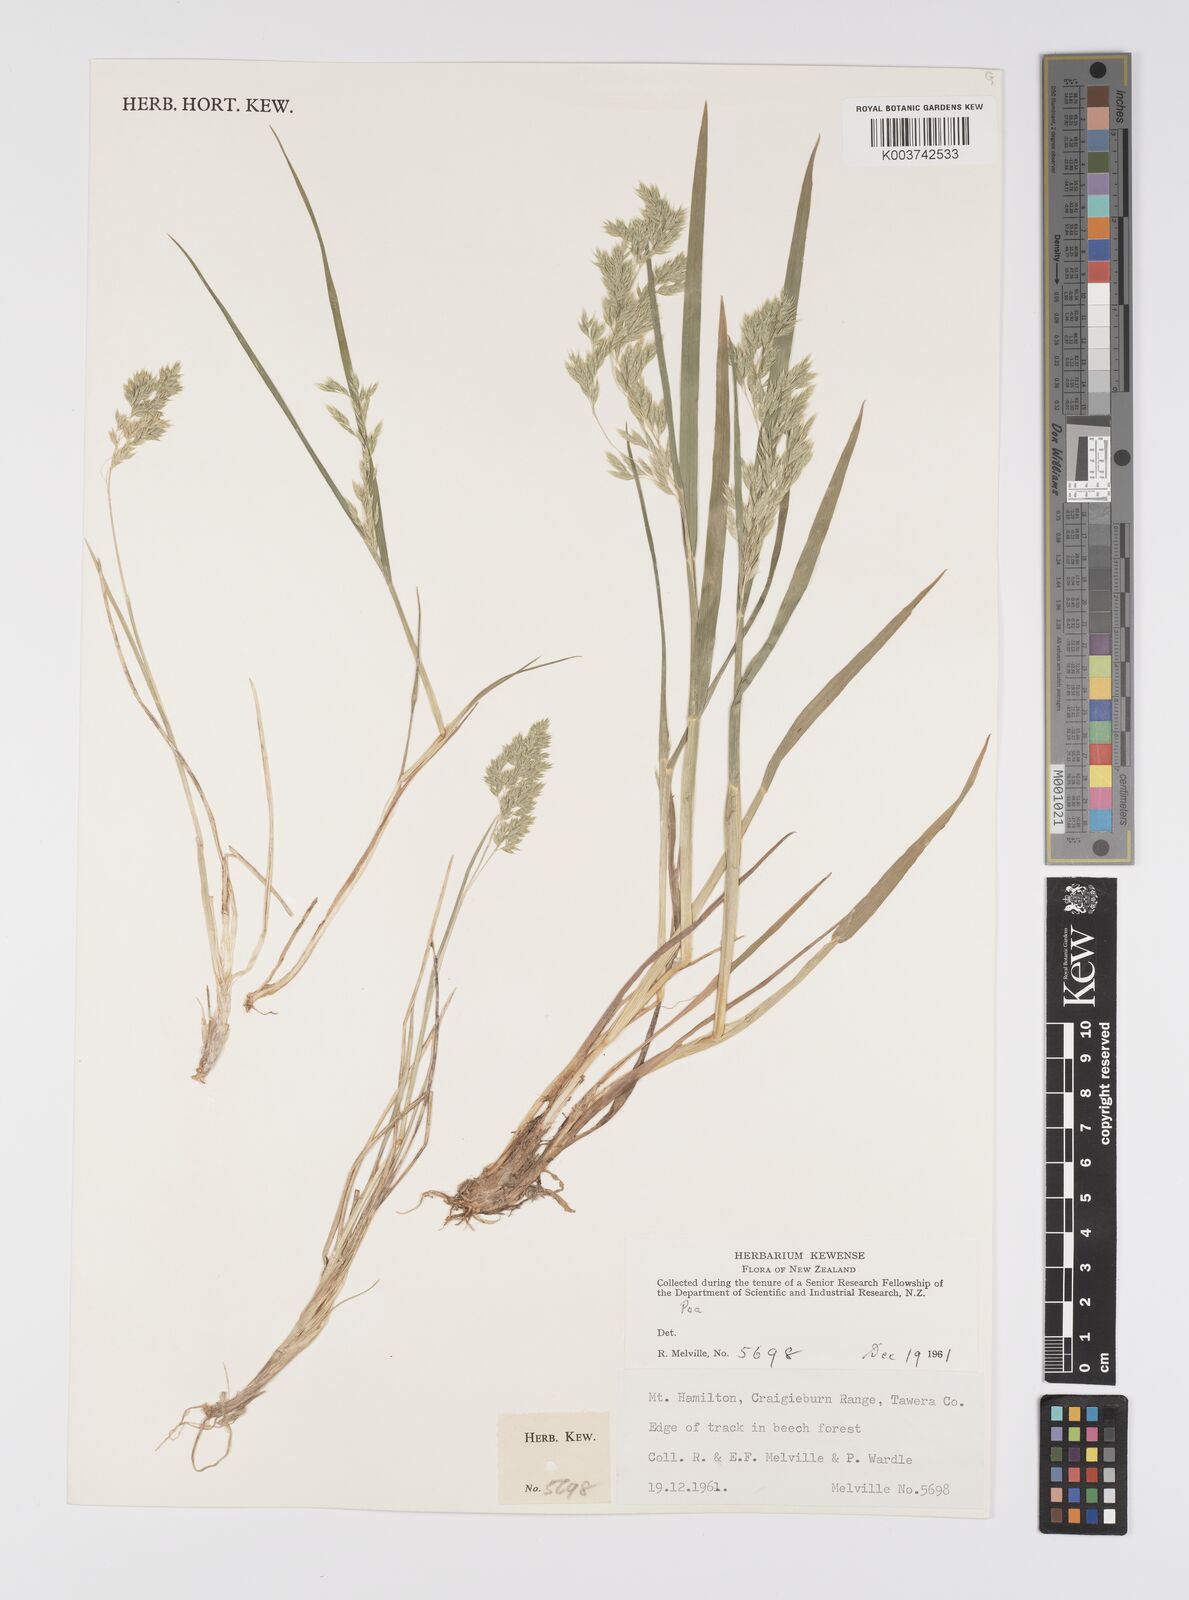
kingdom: Plantae
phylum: Tracheophyta
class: Liliopsida
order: Poales
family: Poaceae
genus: Poa
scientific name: Poa novae-zelandiae
